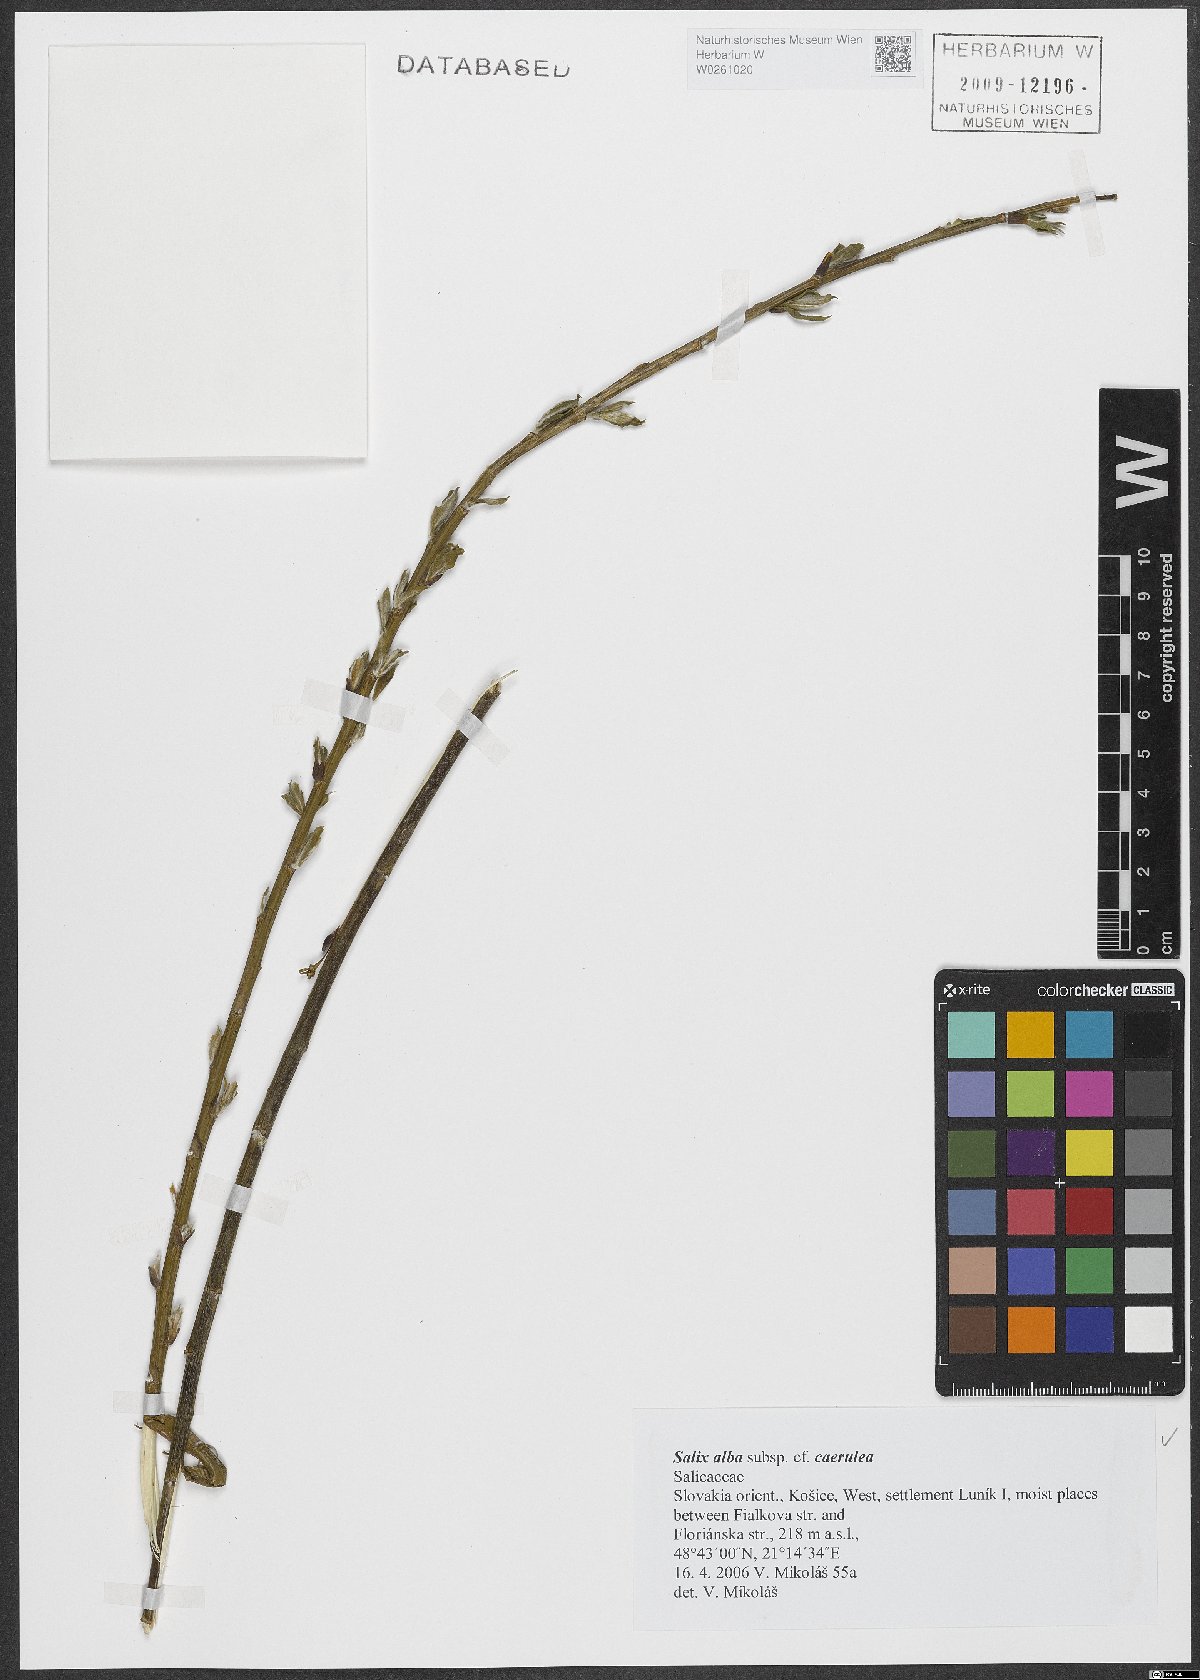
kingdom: Plantae
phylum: Tracheophyta
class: Magnoliopsida
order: Malpighiales
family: Salicaceae
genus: Salix
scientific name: Salix alba
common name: White willow
